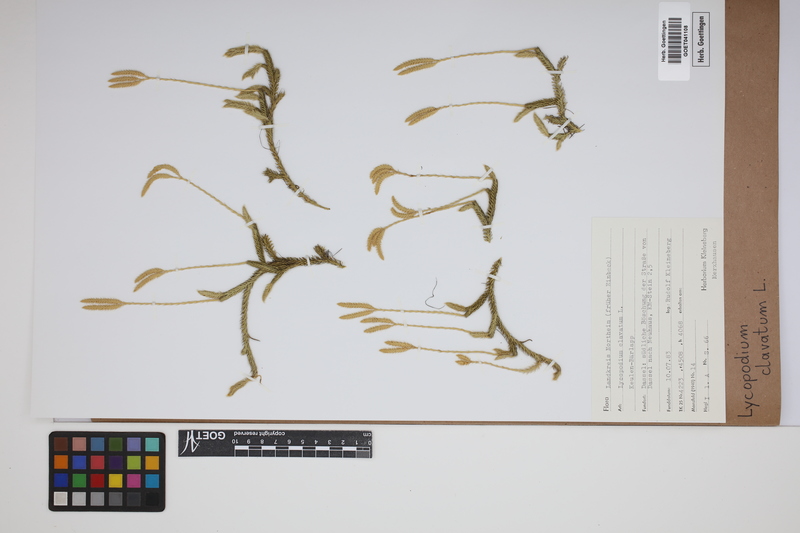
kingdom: Plantae
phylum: Tracheophyta
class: Lycopodiopsida
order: Lycopodiales
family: Lycopodiaceae
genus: Lycopodium
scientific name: Lycopodium clavatum
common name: Stag's-horn clubmoss
